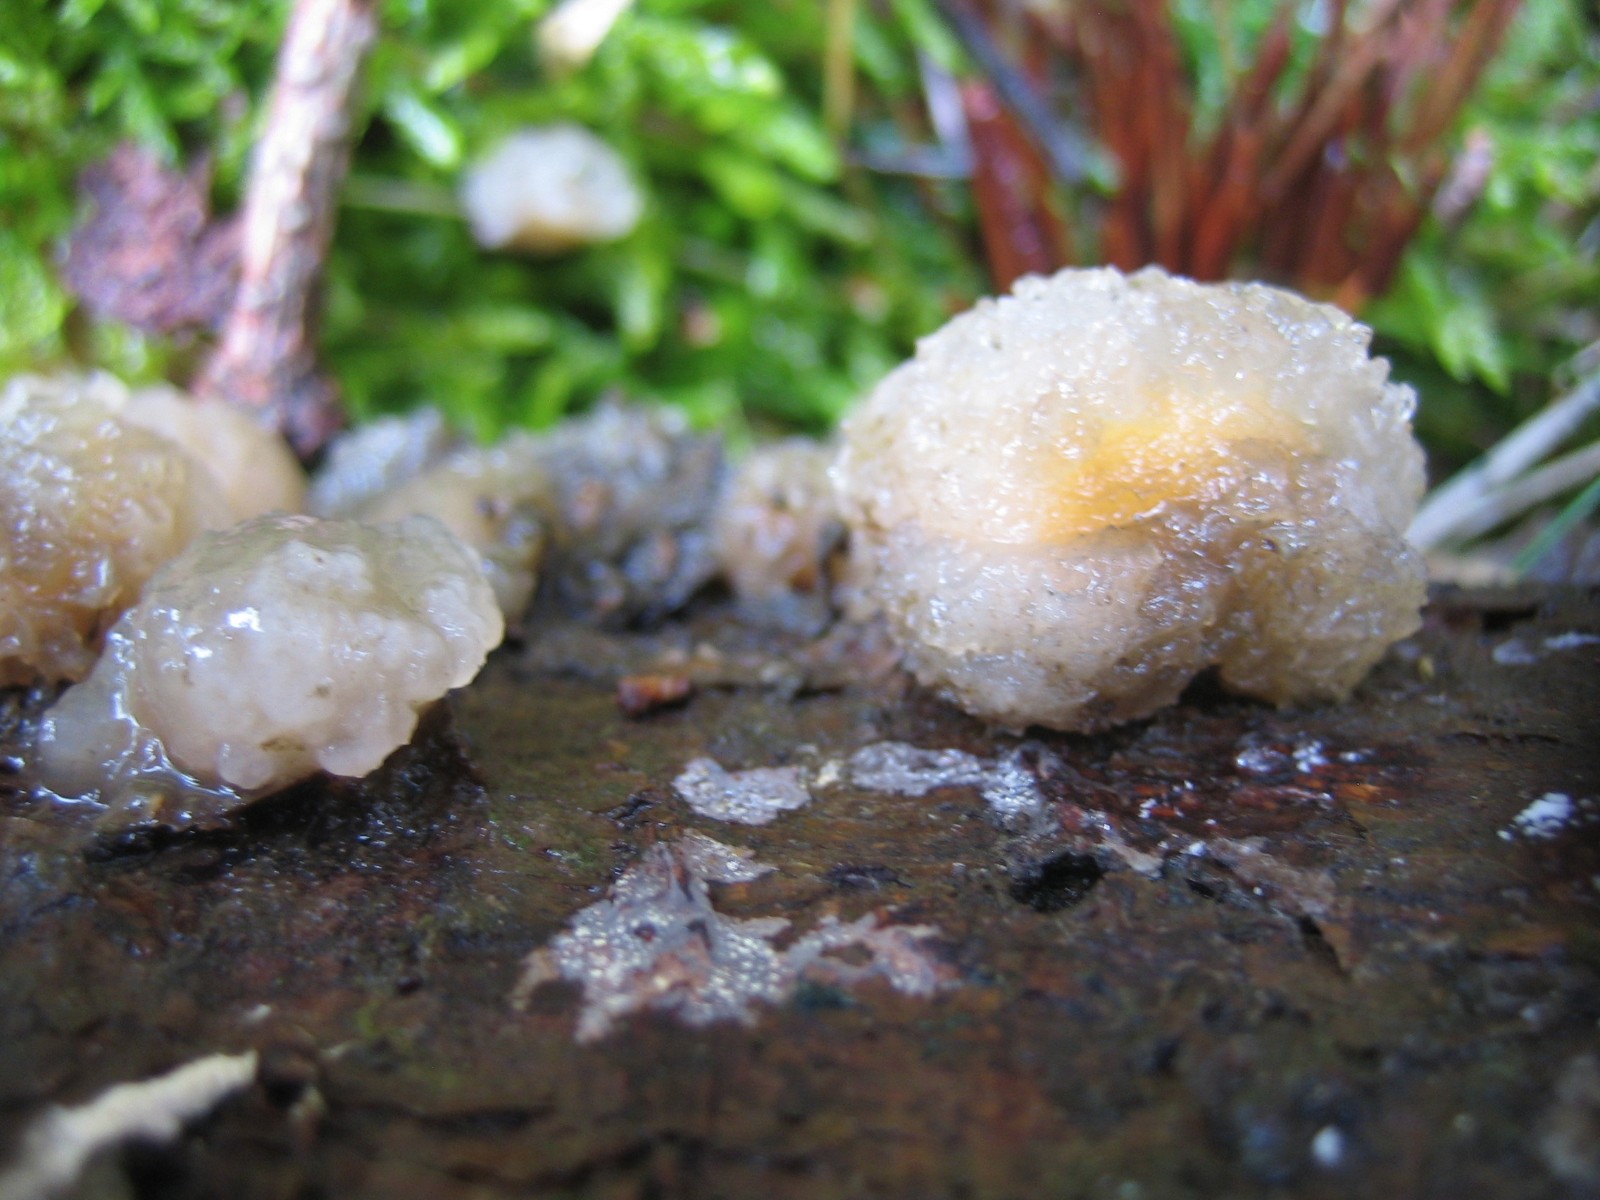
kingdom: Fungi
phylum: Basidiomycota
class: Tremellomycetes
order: Tremellales
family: Naemateliaceae
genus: Naematelia
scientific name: Naematelia encephala
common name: fyrre-bævresvamp
